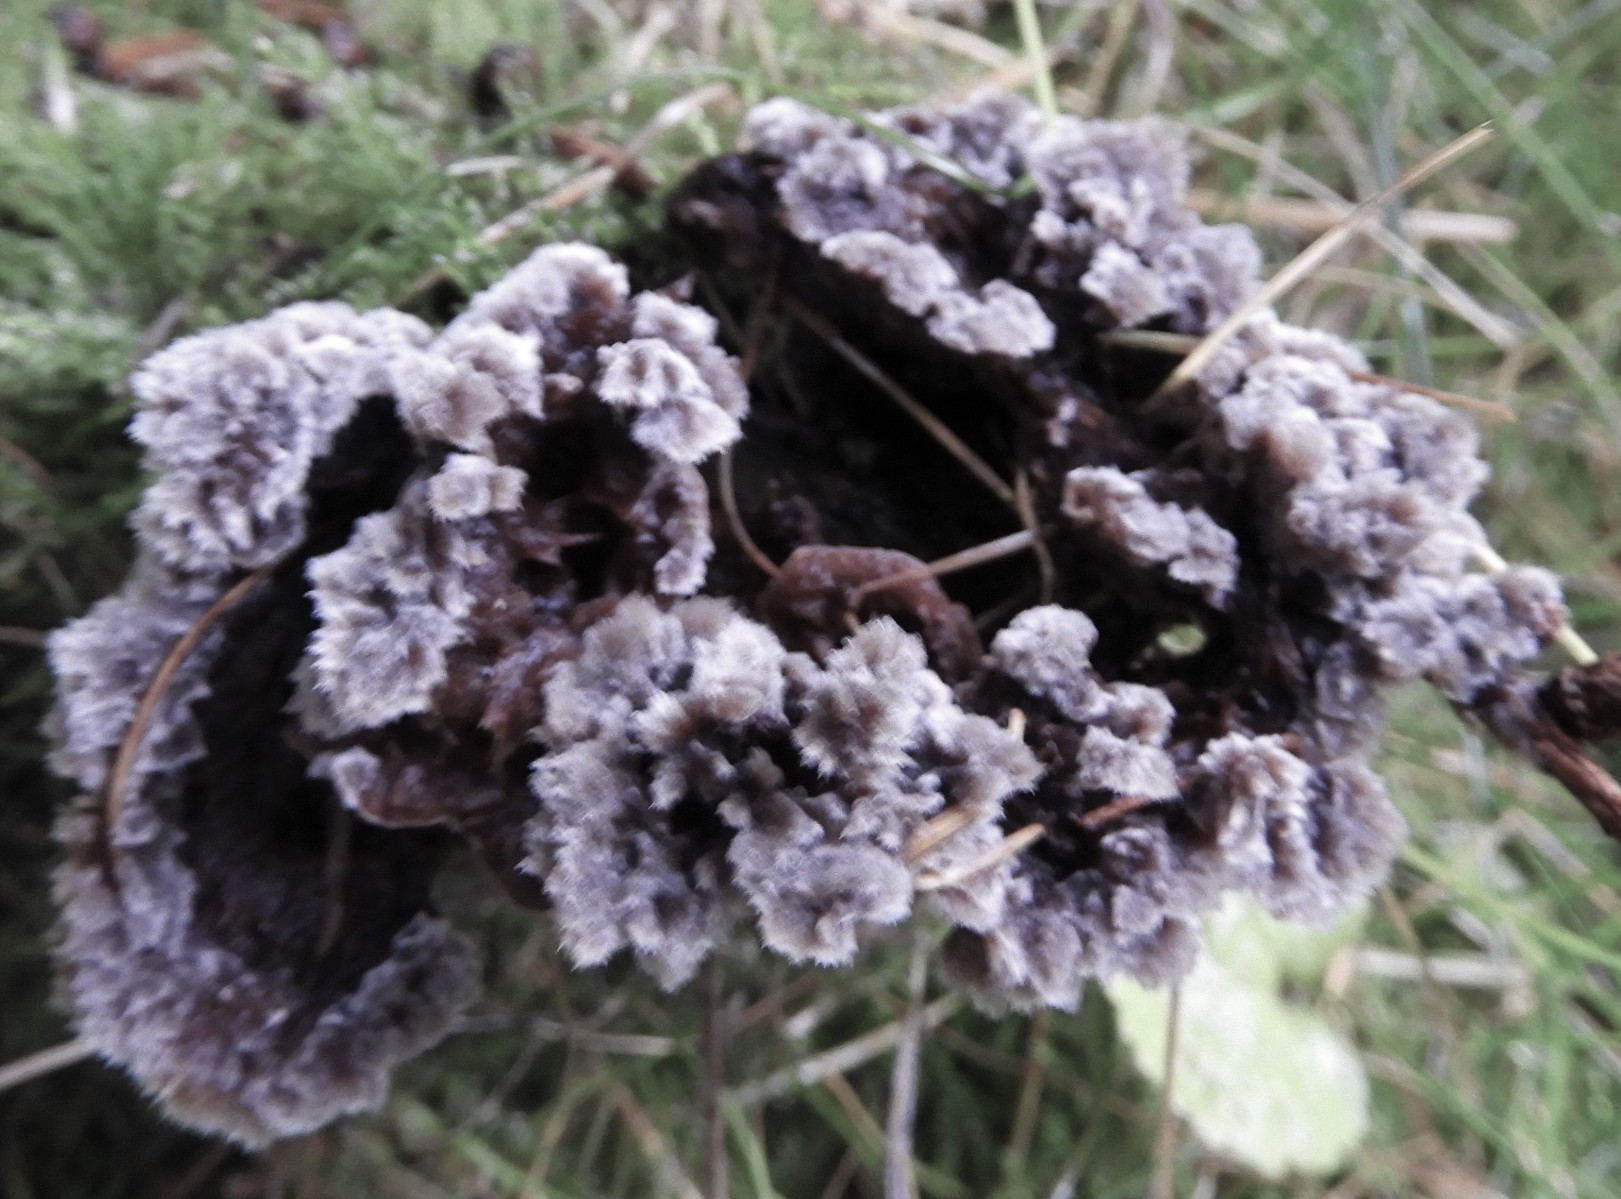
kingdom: Fungi
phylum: Basidiomycota
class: Agaricomycetes
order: Thelephorales
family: Thelephoraceae
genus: Thelephora
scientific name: Thelephora terrestris
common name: fliget frynsesvamp
